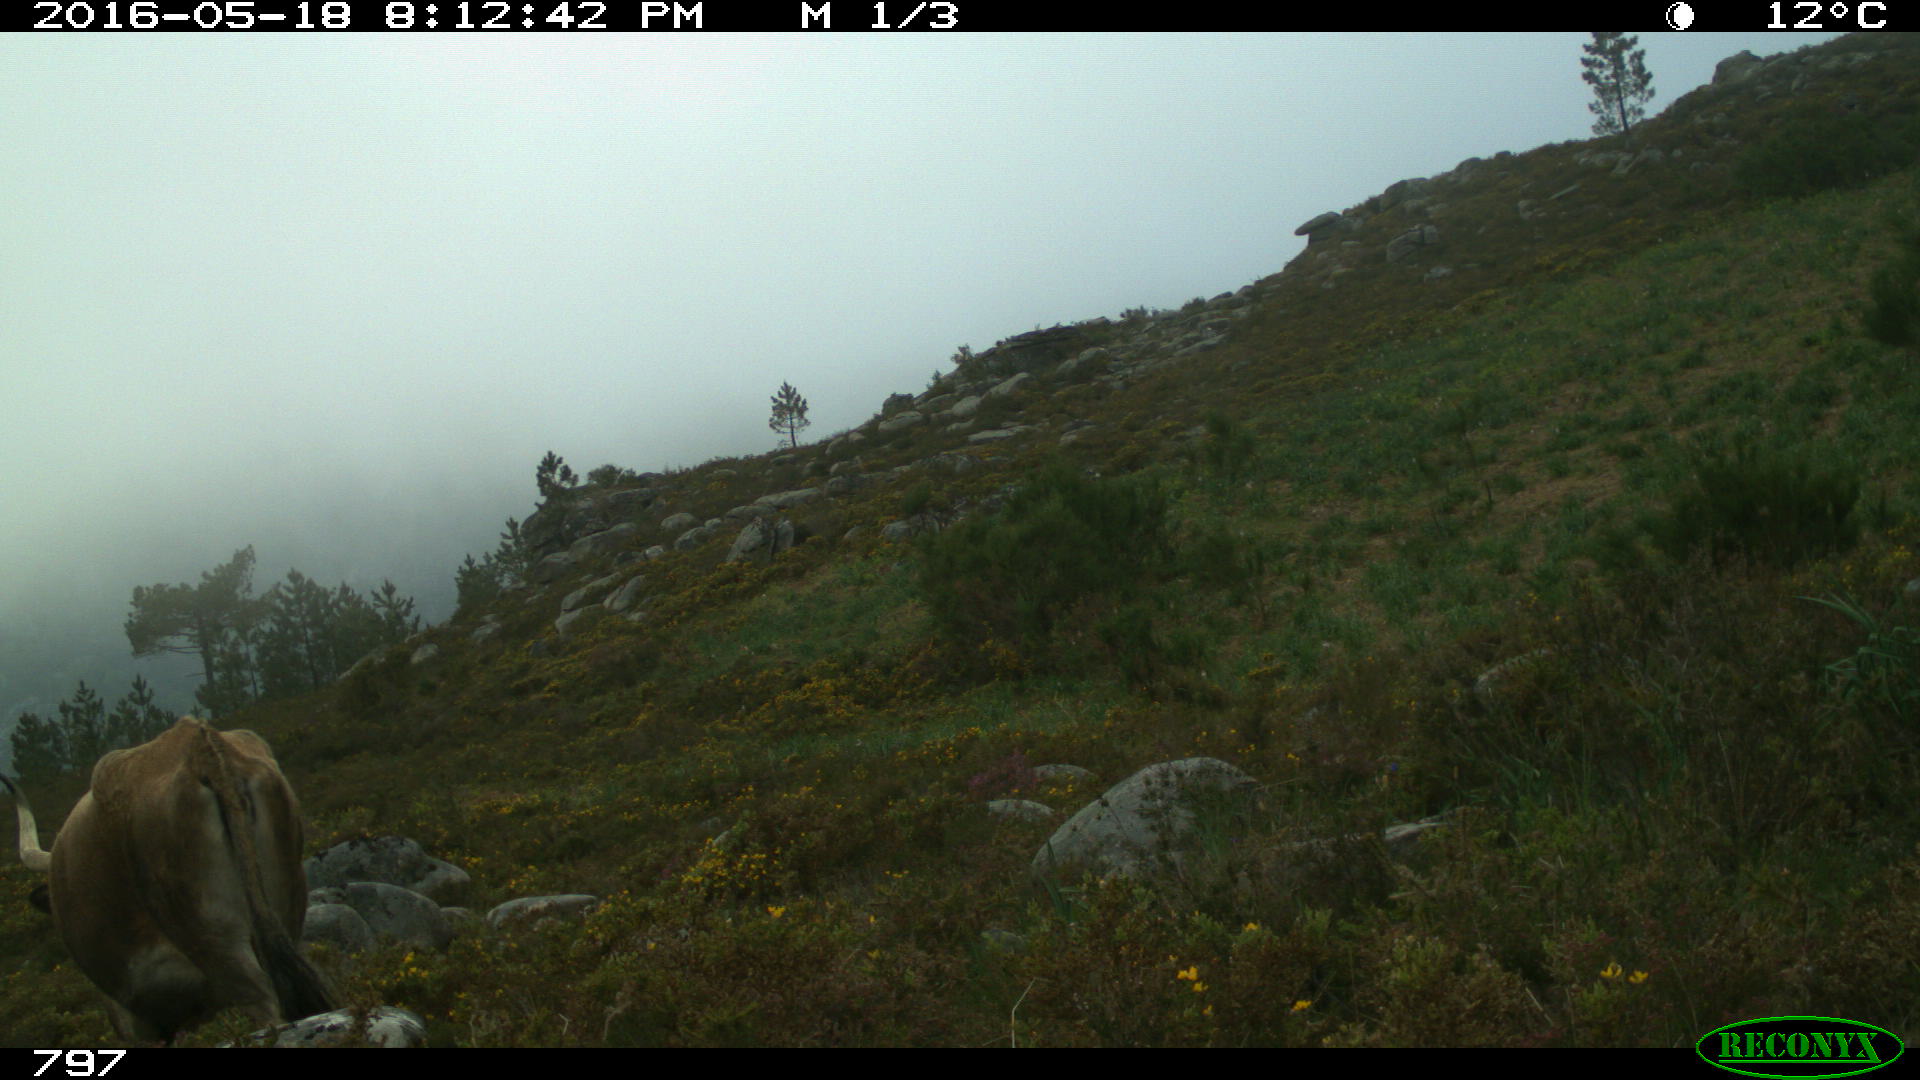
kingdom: Animalia
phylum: Chordata
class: Mammalia
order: Artiodactyla
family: Bovidae
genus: Bos
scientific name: Bos taurus
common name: Domesticated cattle
